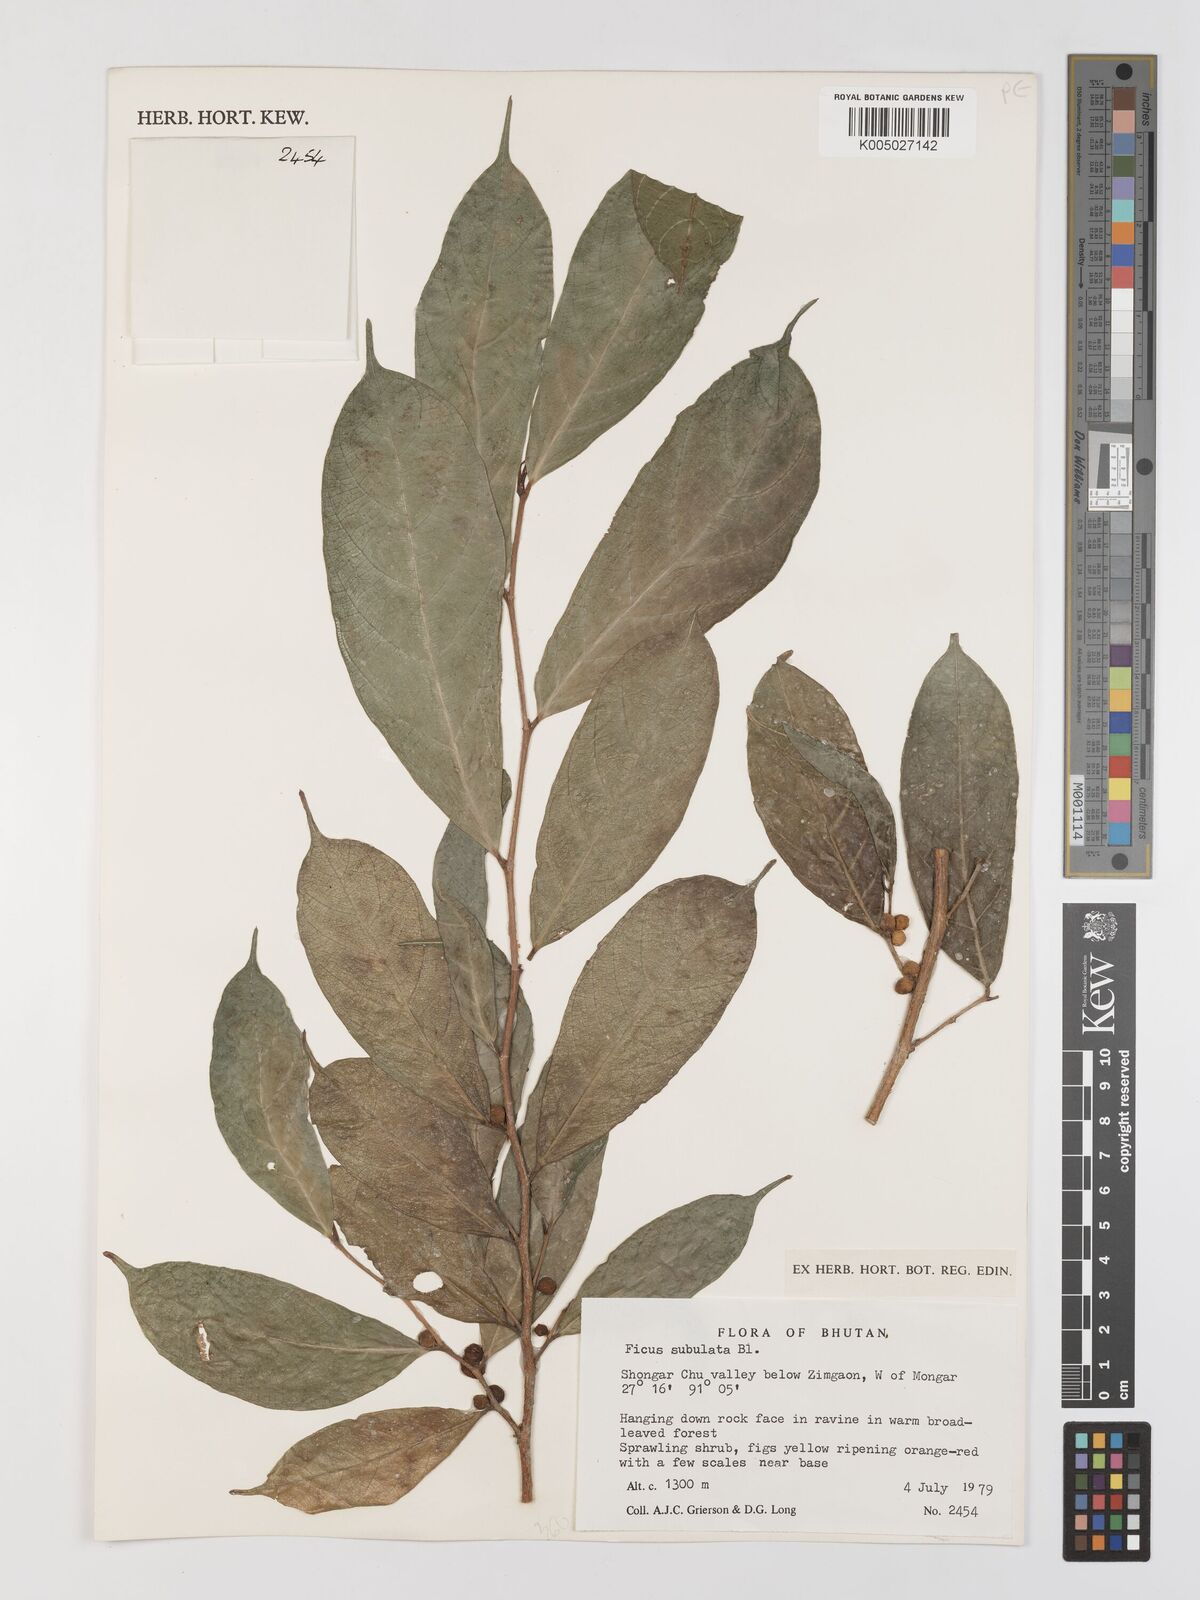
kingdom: Plantae
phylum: Tracheophyta
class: Magnoliopsida
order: Rosales
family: Moraceae
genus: Ficus
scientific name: Ficus subulata
